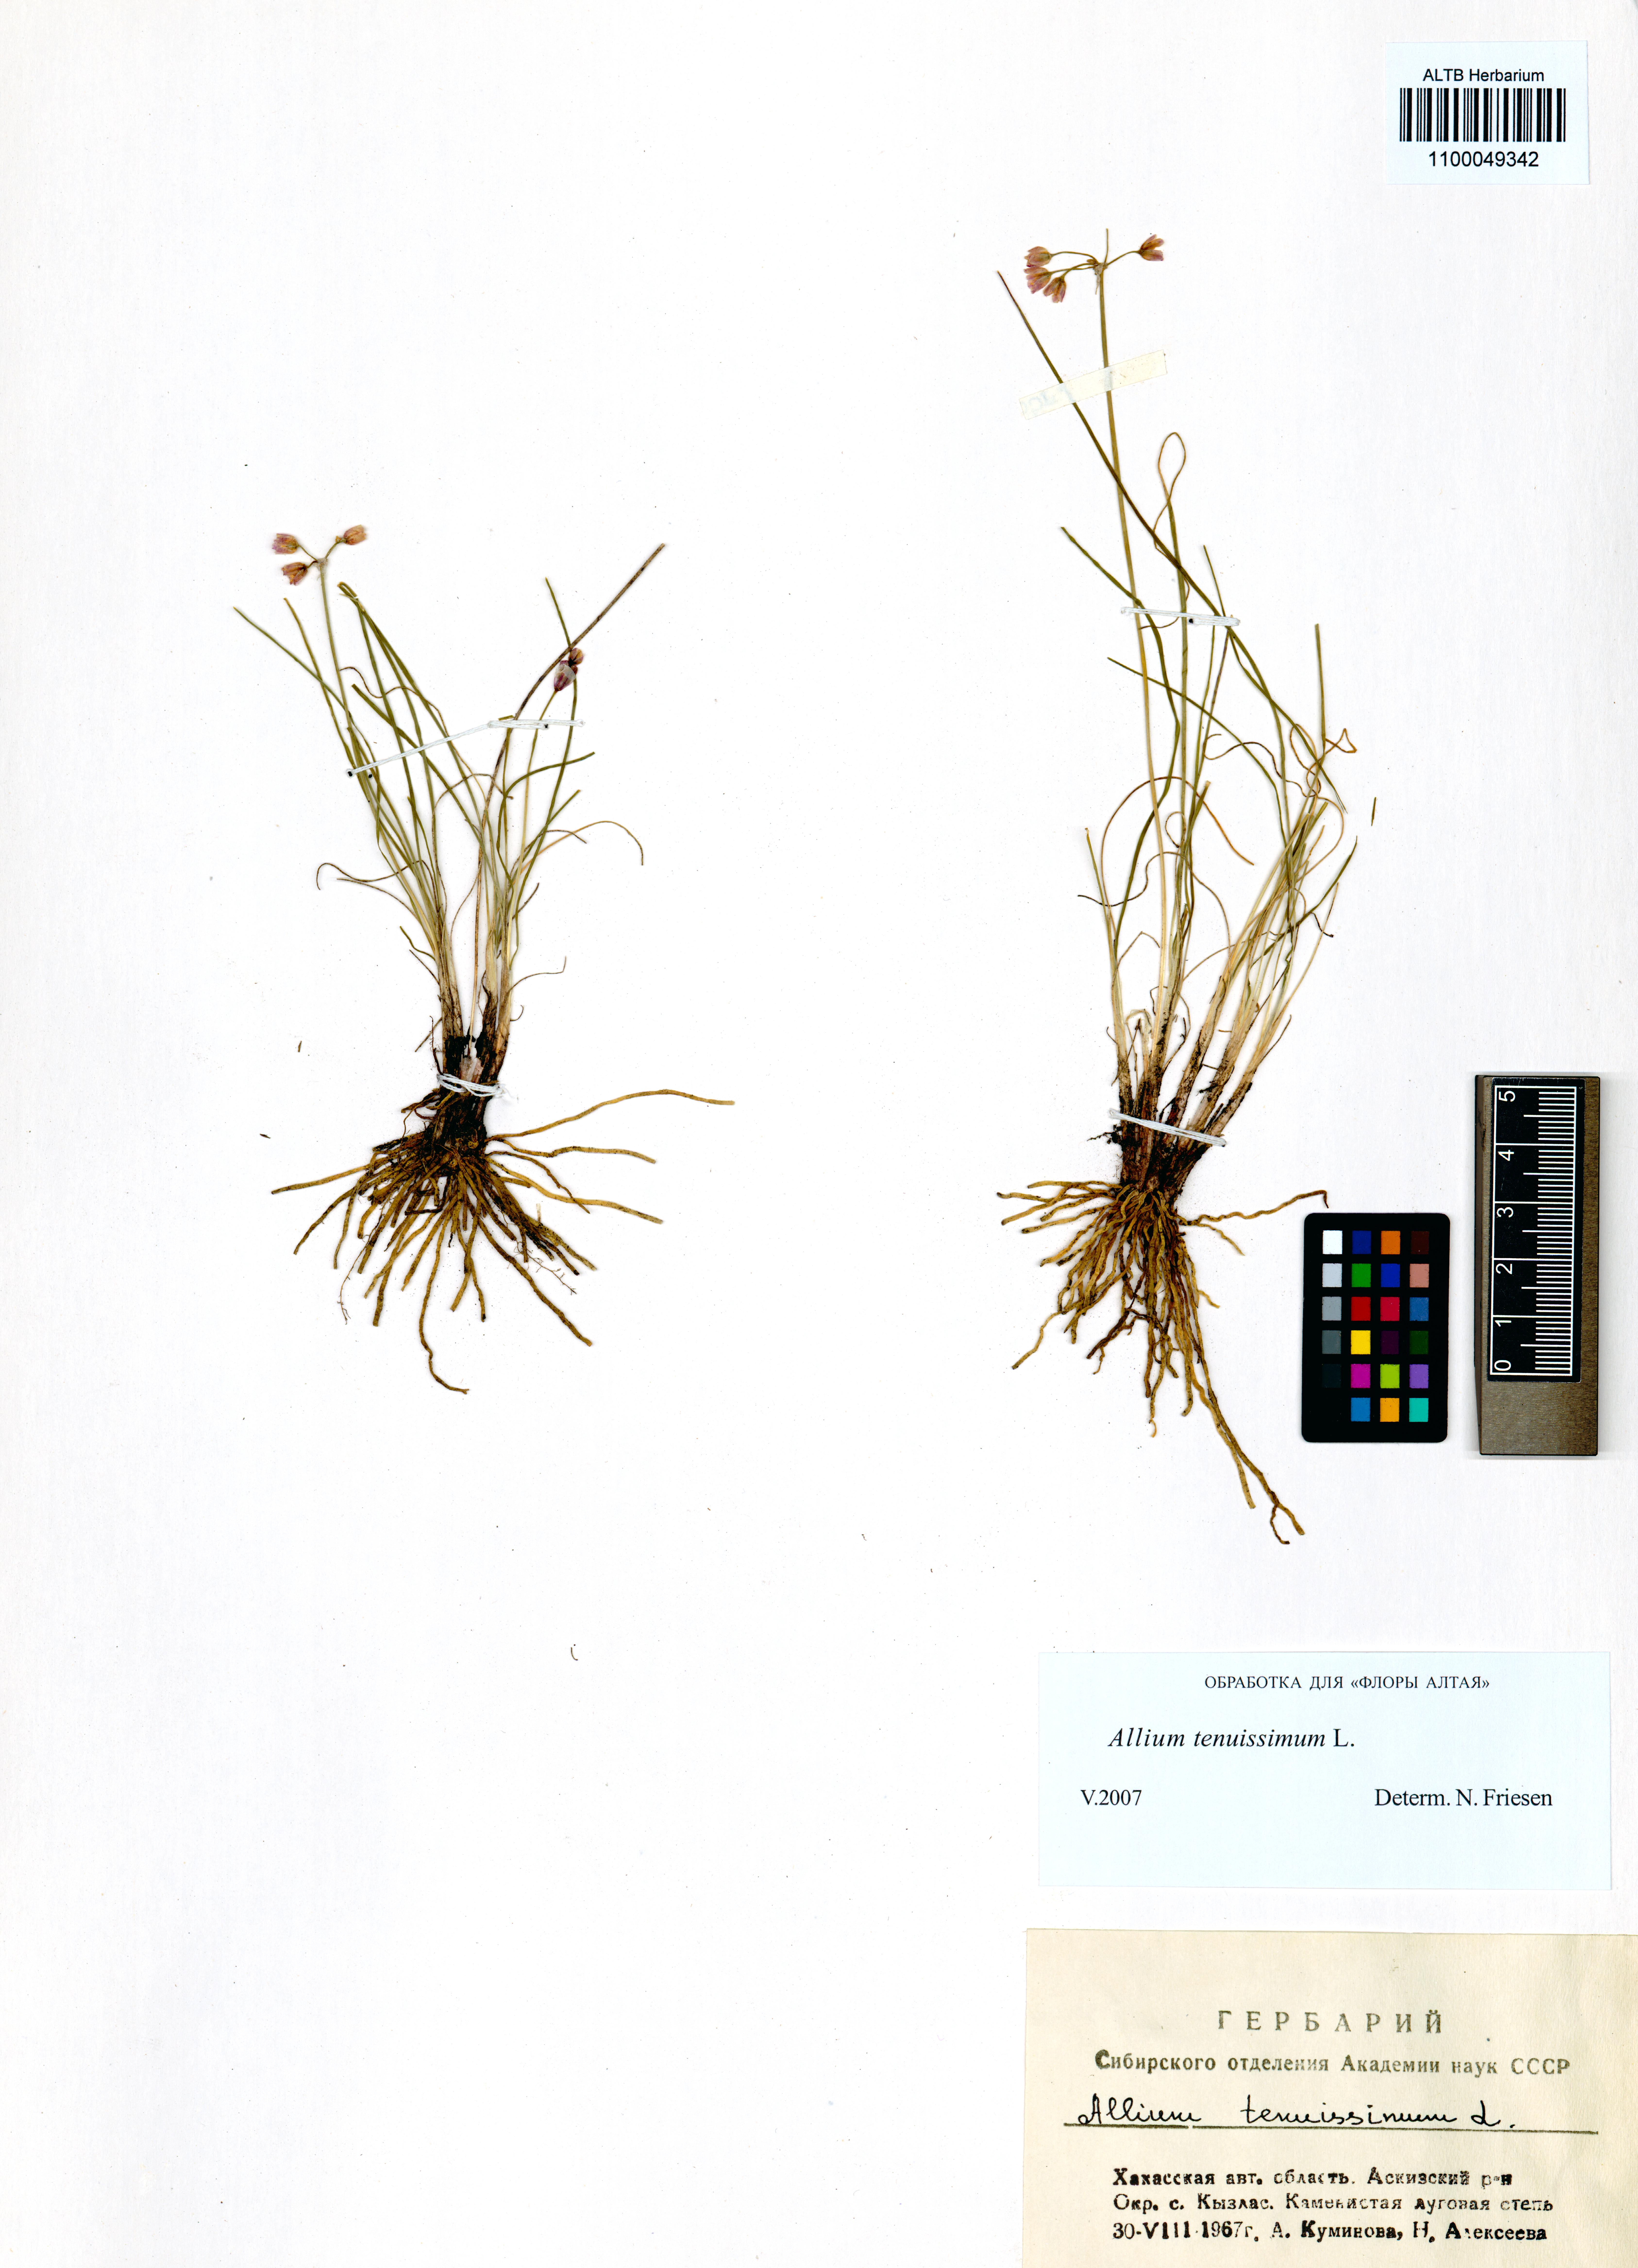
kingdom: Plantae
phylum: Tracheophyta
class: Liliopsida
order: Asparagales
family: Amaryllidaceae
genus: Allium
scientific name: Allium tenuissimum
